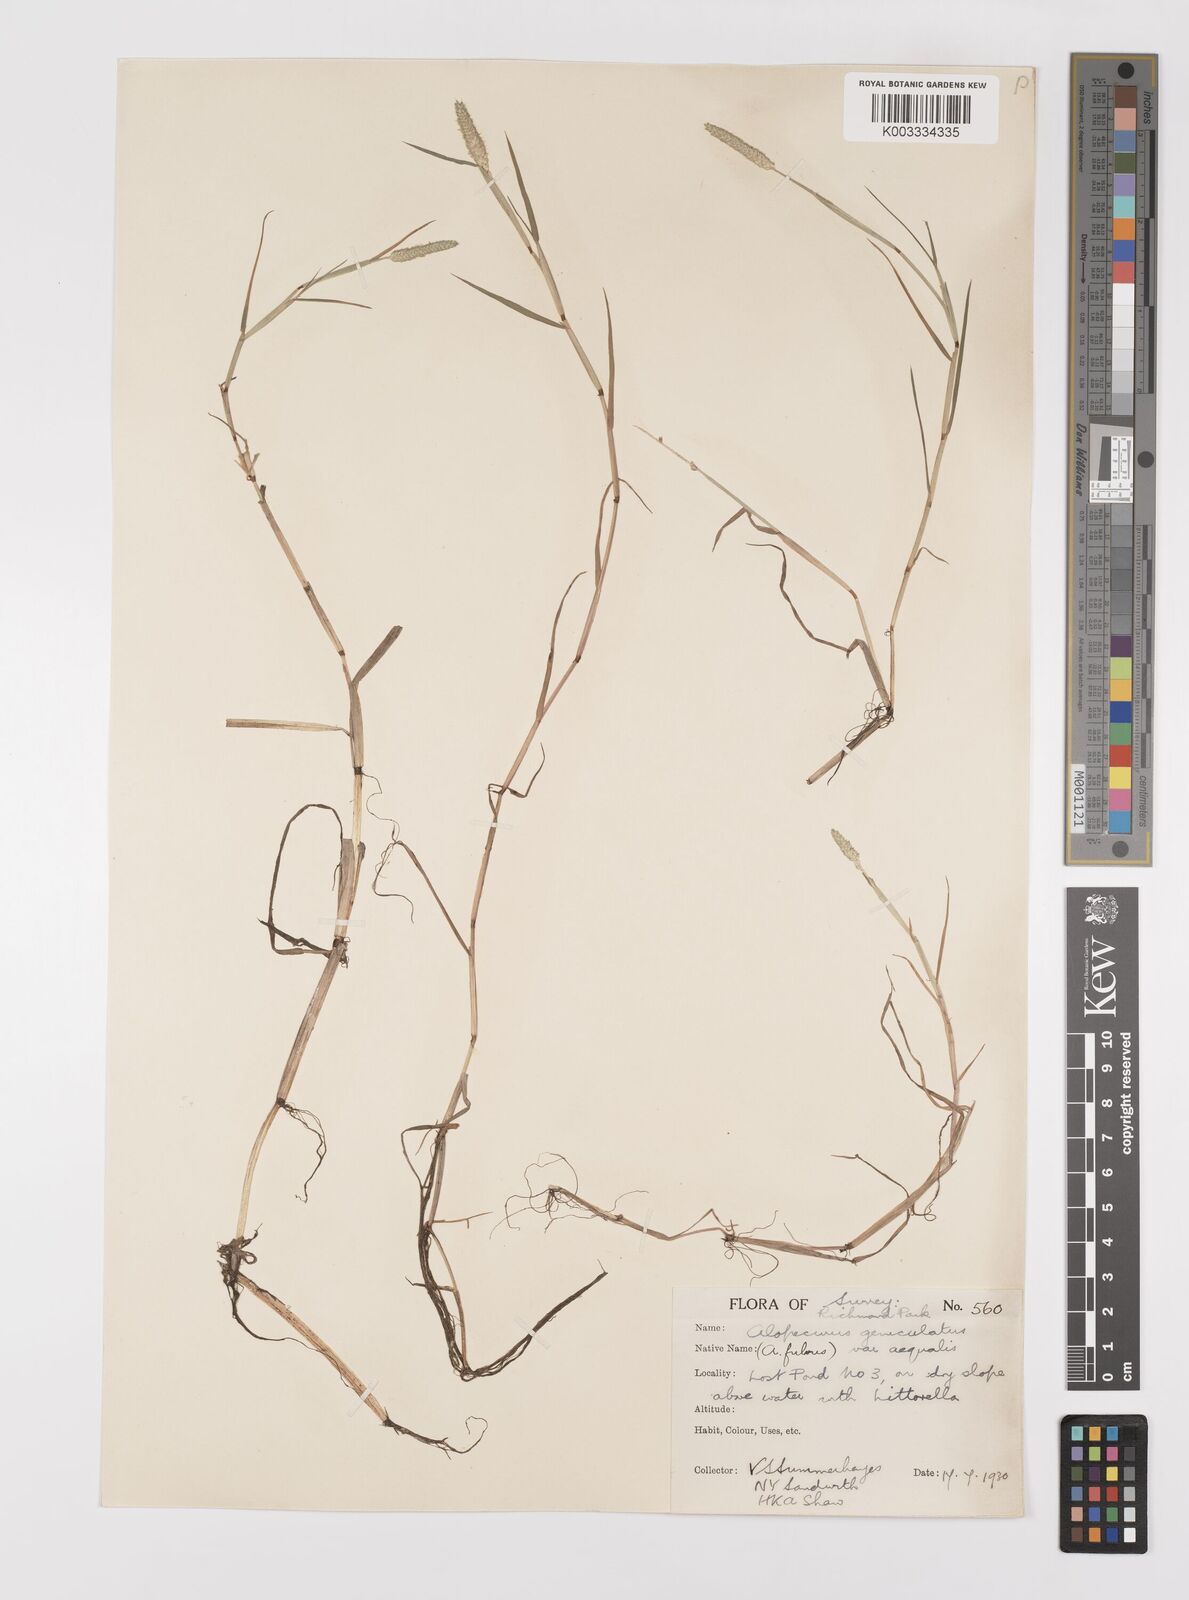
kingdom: Plantae
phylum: Tracheophyta
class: Liliopsida
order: Poales
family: Poaceae
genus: Alopecurus
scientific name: Alopecurus aequalis
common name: Orange foxtail
